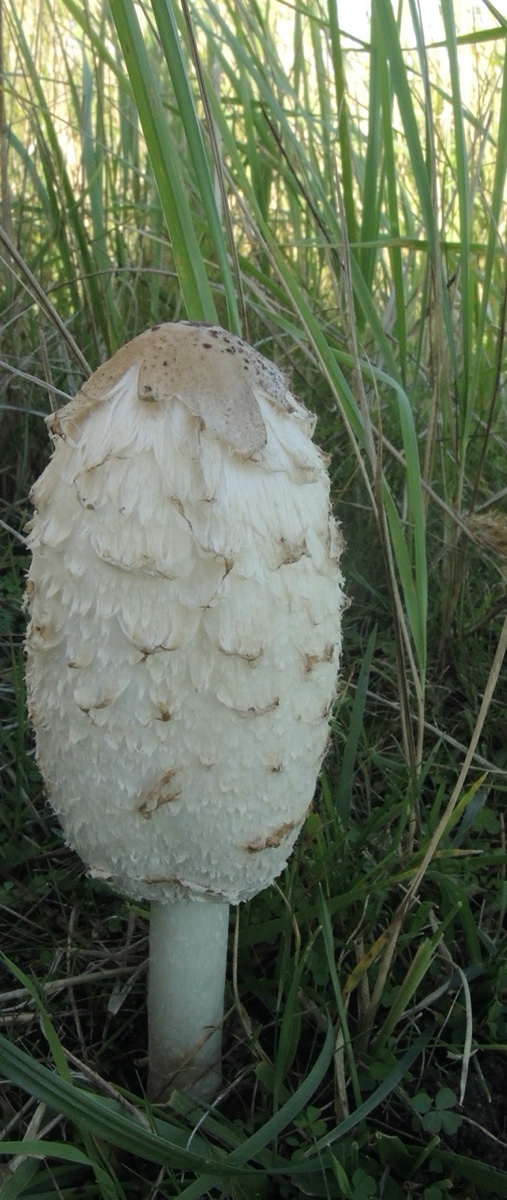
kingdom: Fungi
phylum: Basidiomycota
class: Agaricomycetes
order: Agaricales
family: Agaricaceae
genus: Coprinus
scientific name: Coprinus comatus
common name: stor parykhat
